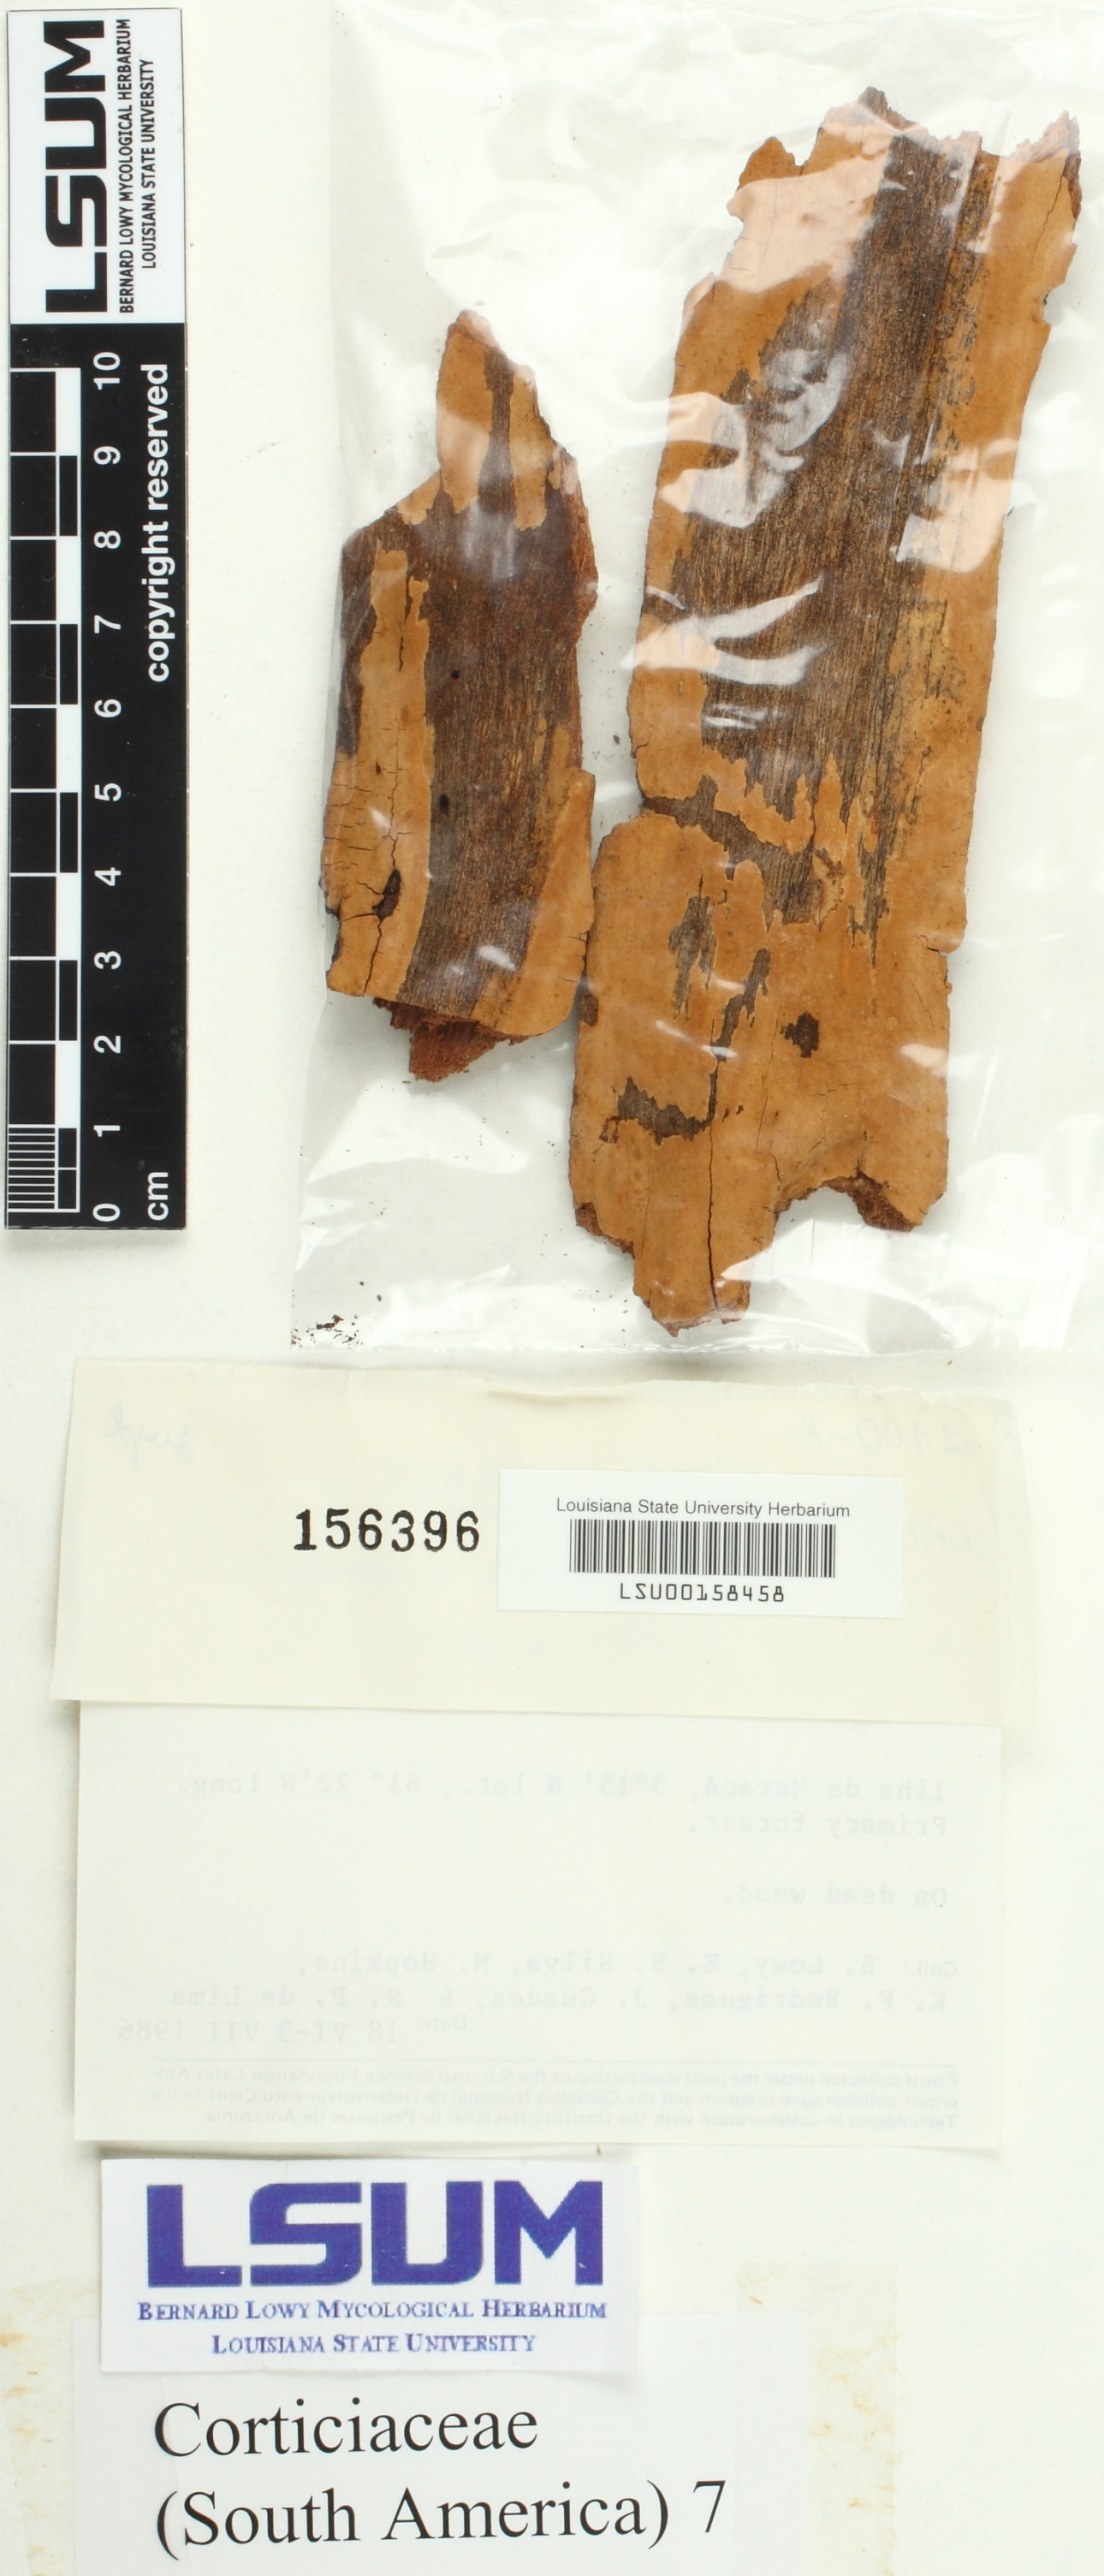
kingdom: Fungi
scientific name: Fungi
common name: Fungi
